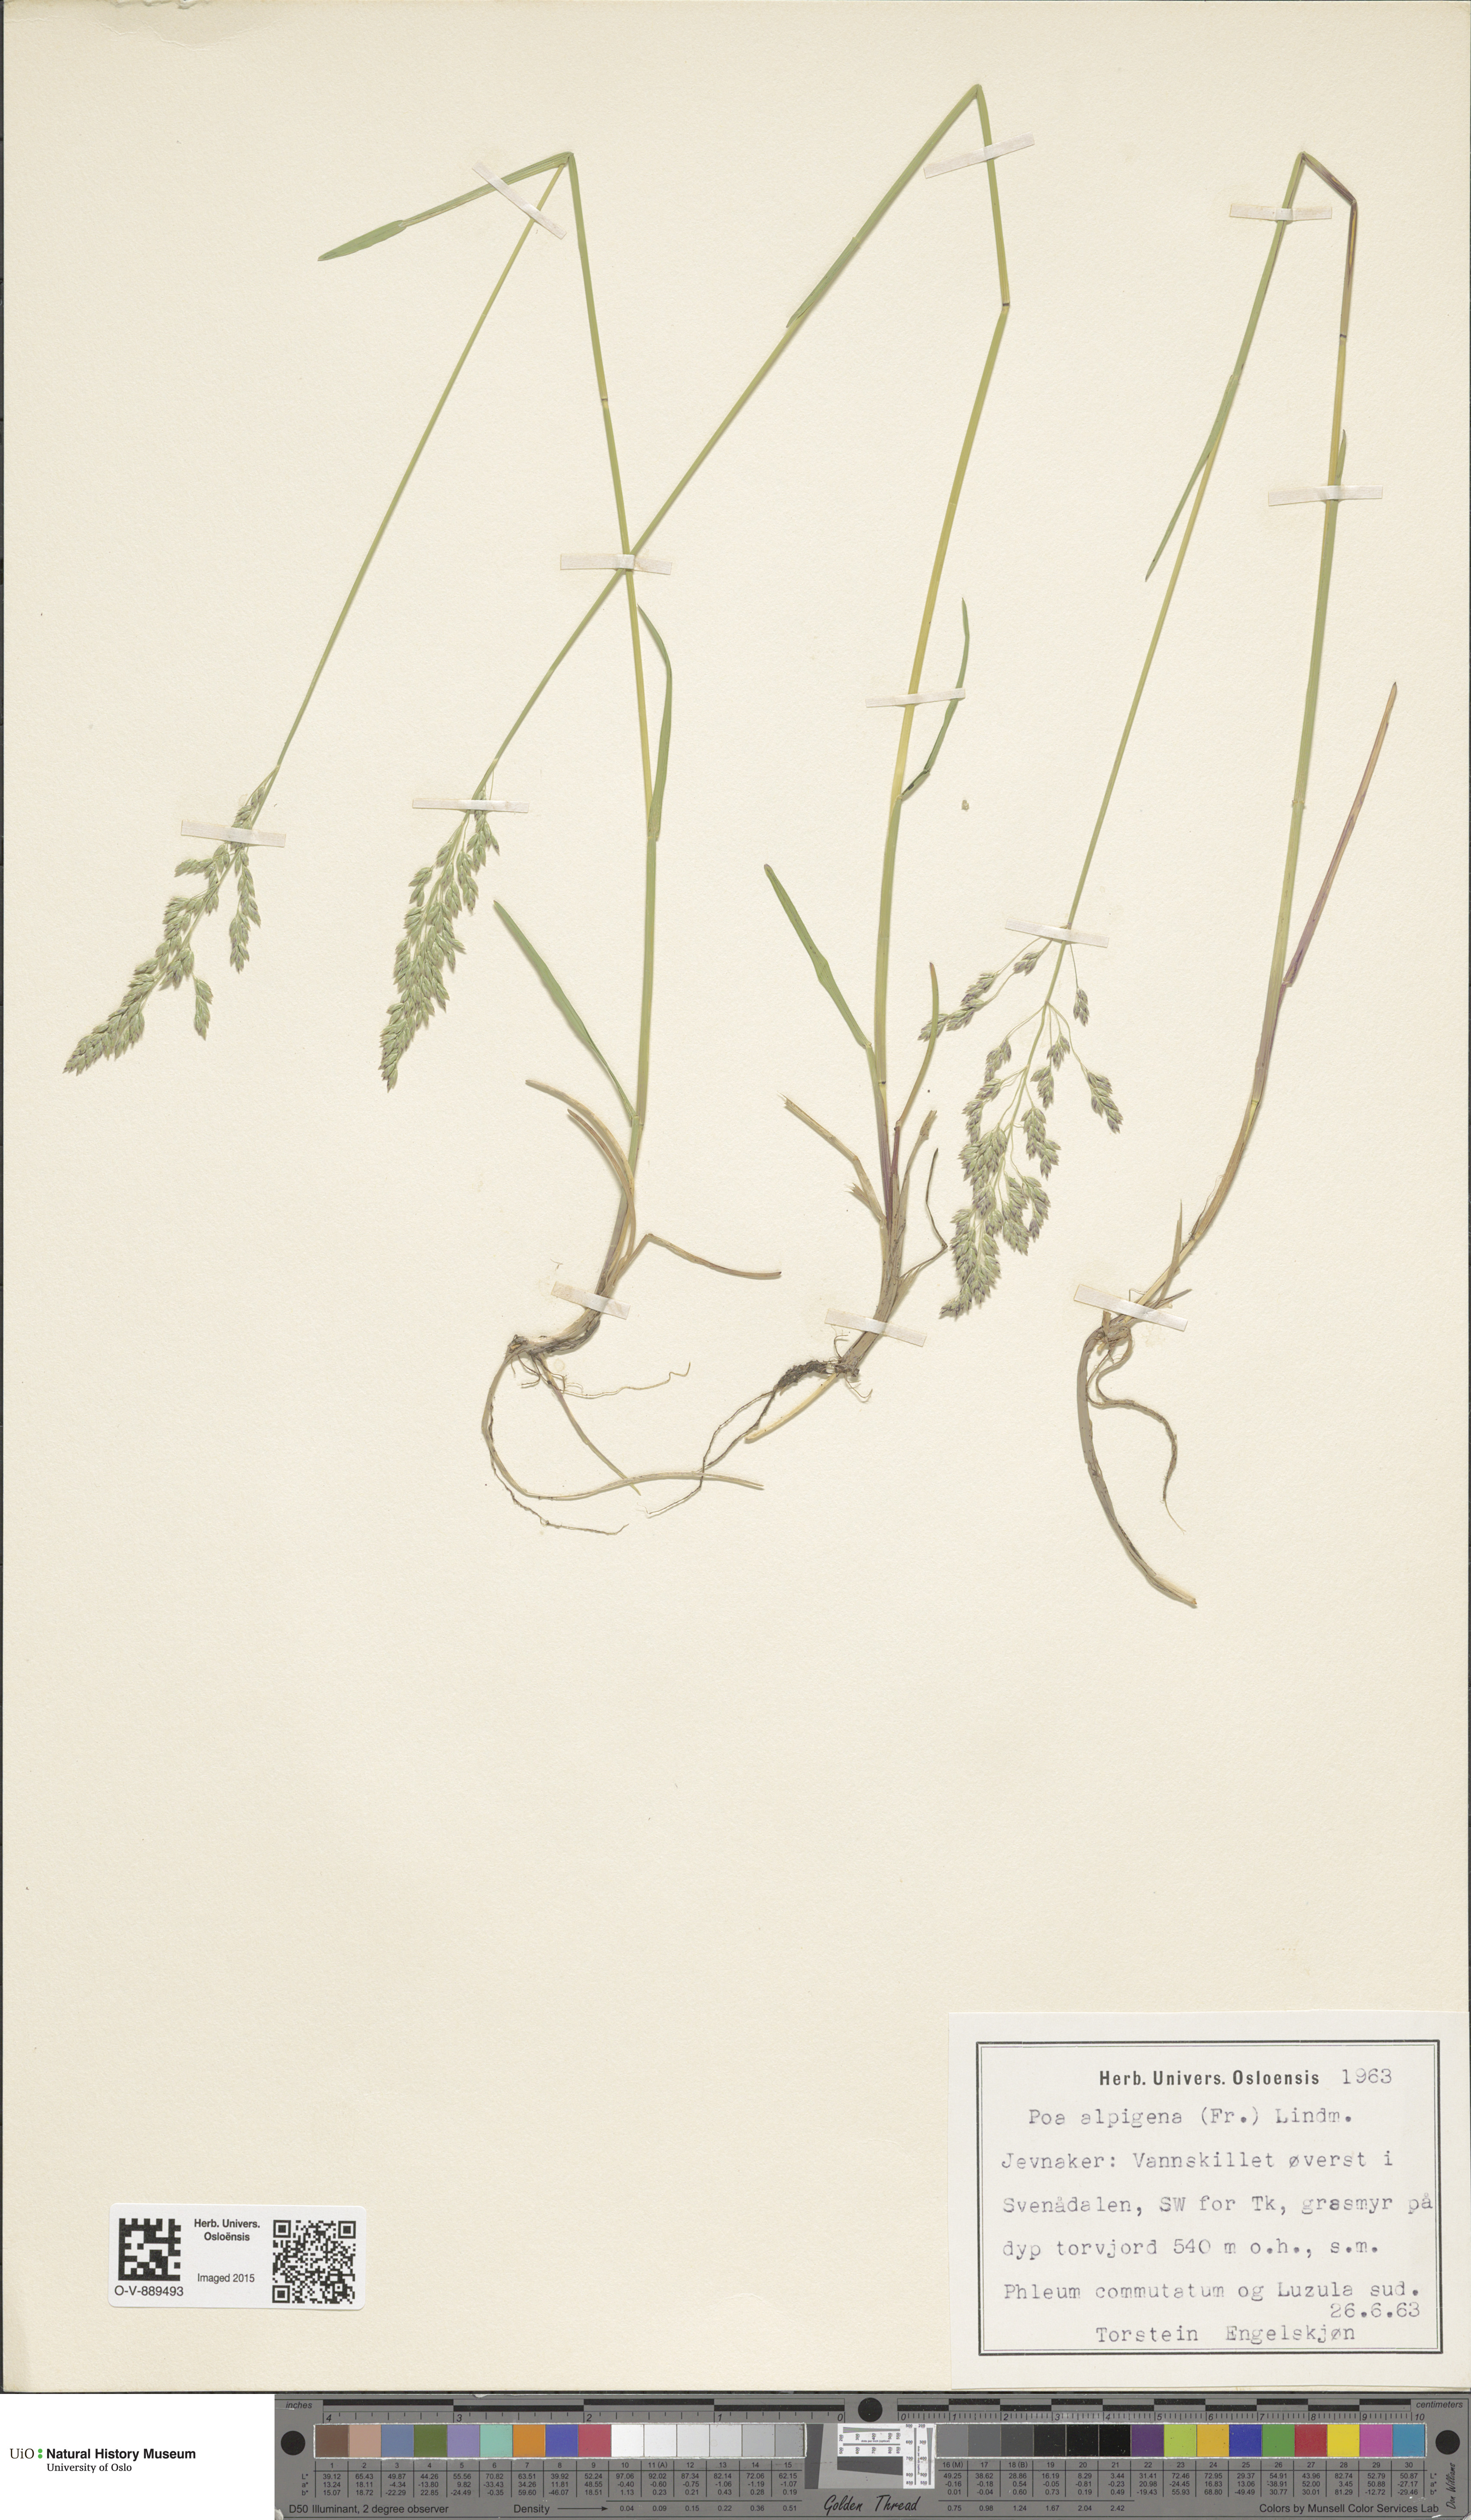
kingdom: Plantae
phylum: Tracheophyta
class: Liliopsida
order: Poales
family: Poaceae
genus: Poa
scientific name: Poa alpigena
